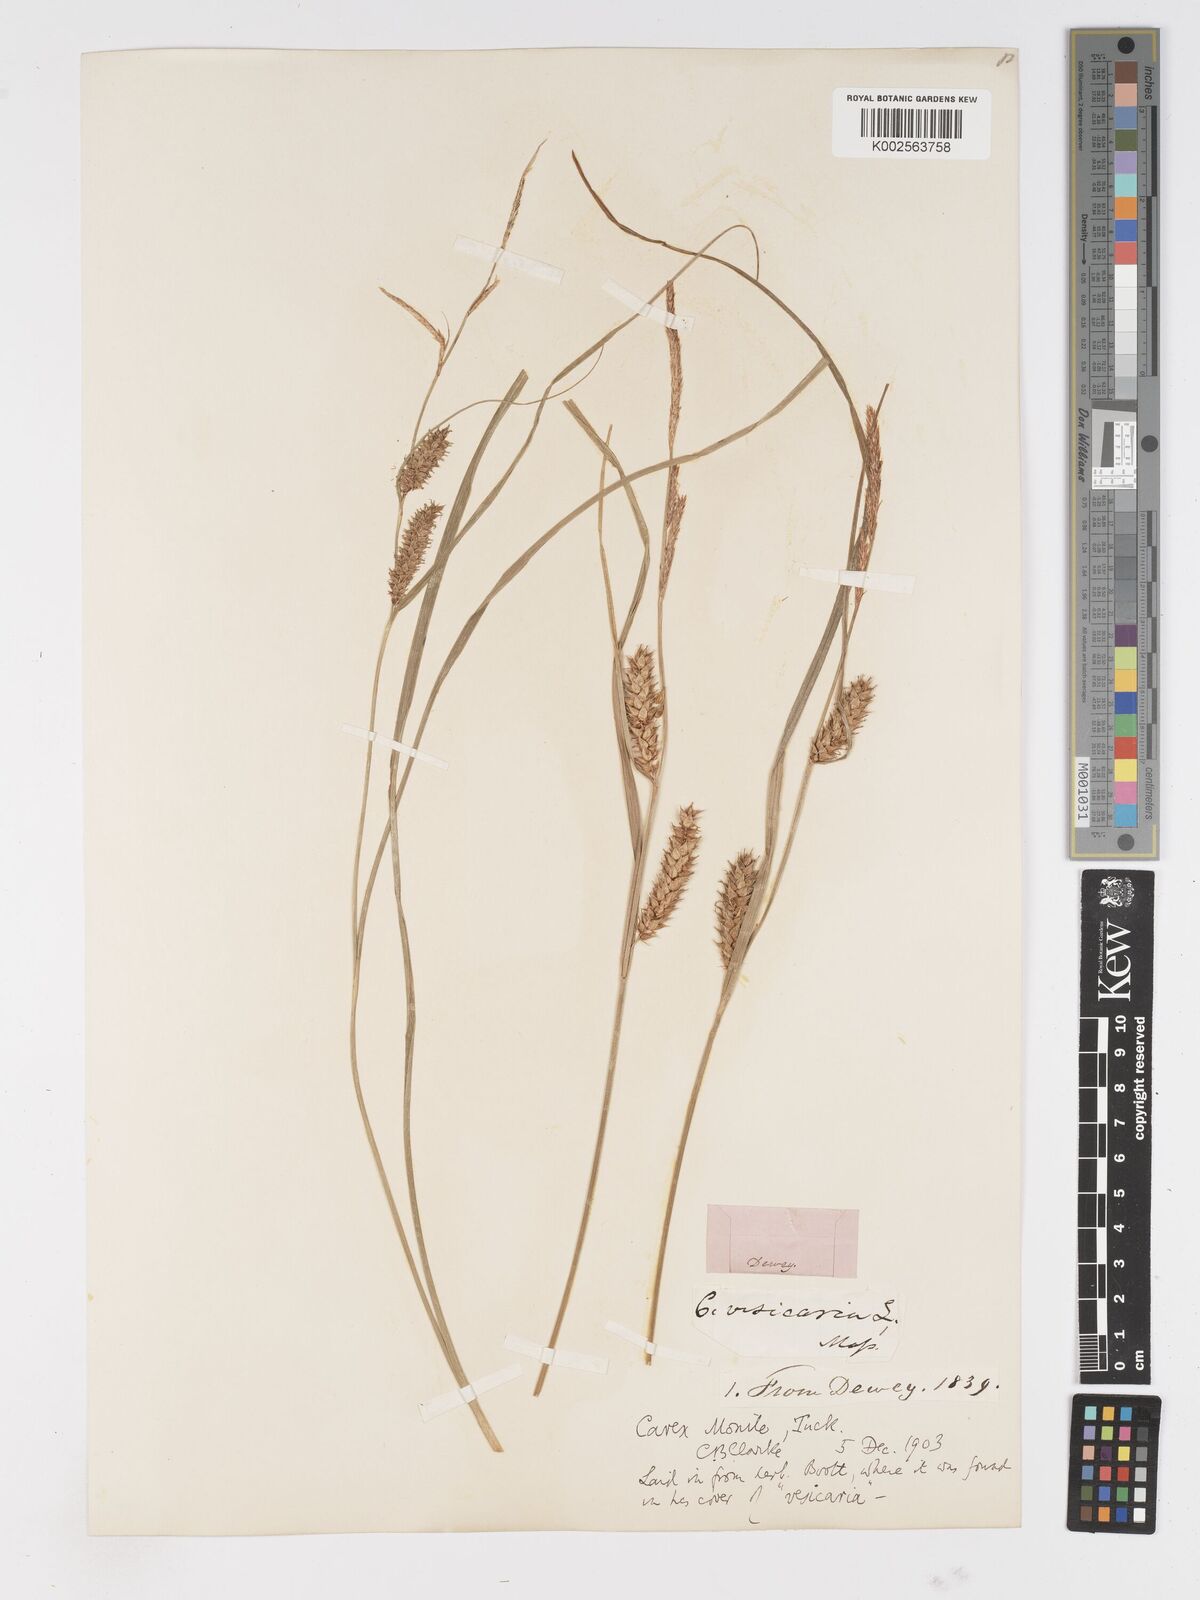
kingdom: Plantae
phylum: Tracheophyta
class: Liliopsida
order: Poales
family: Cyperaceae
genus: Carex
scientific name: Carex vesicaria
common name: Bladder-sedge
